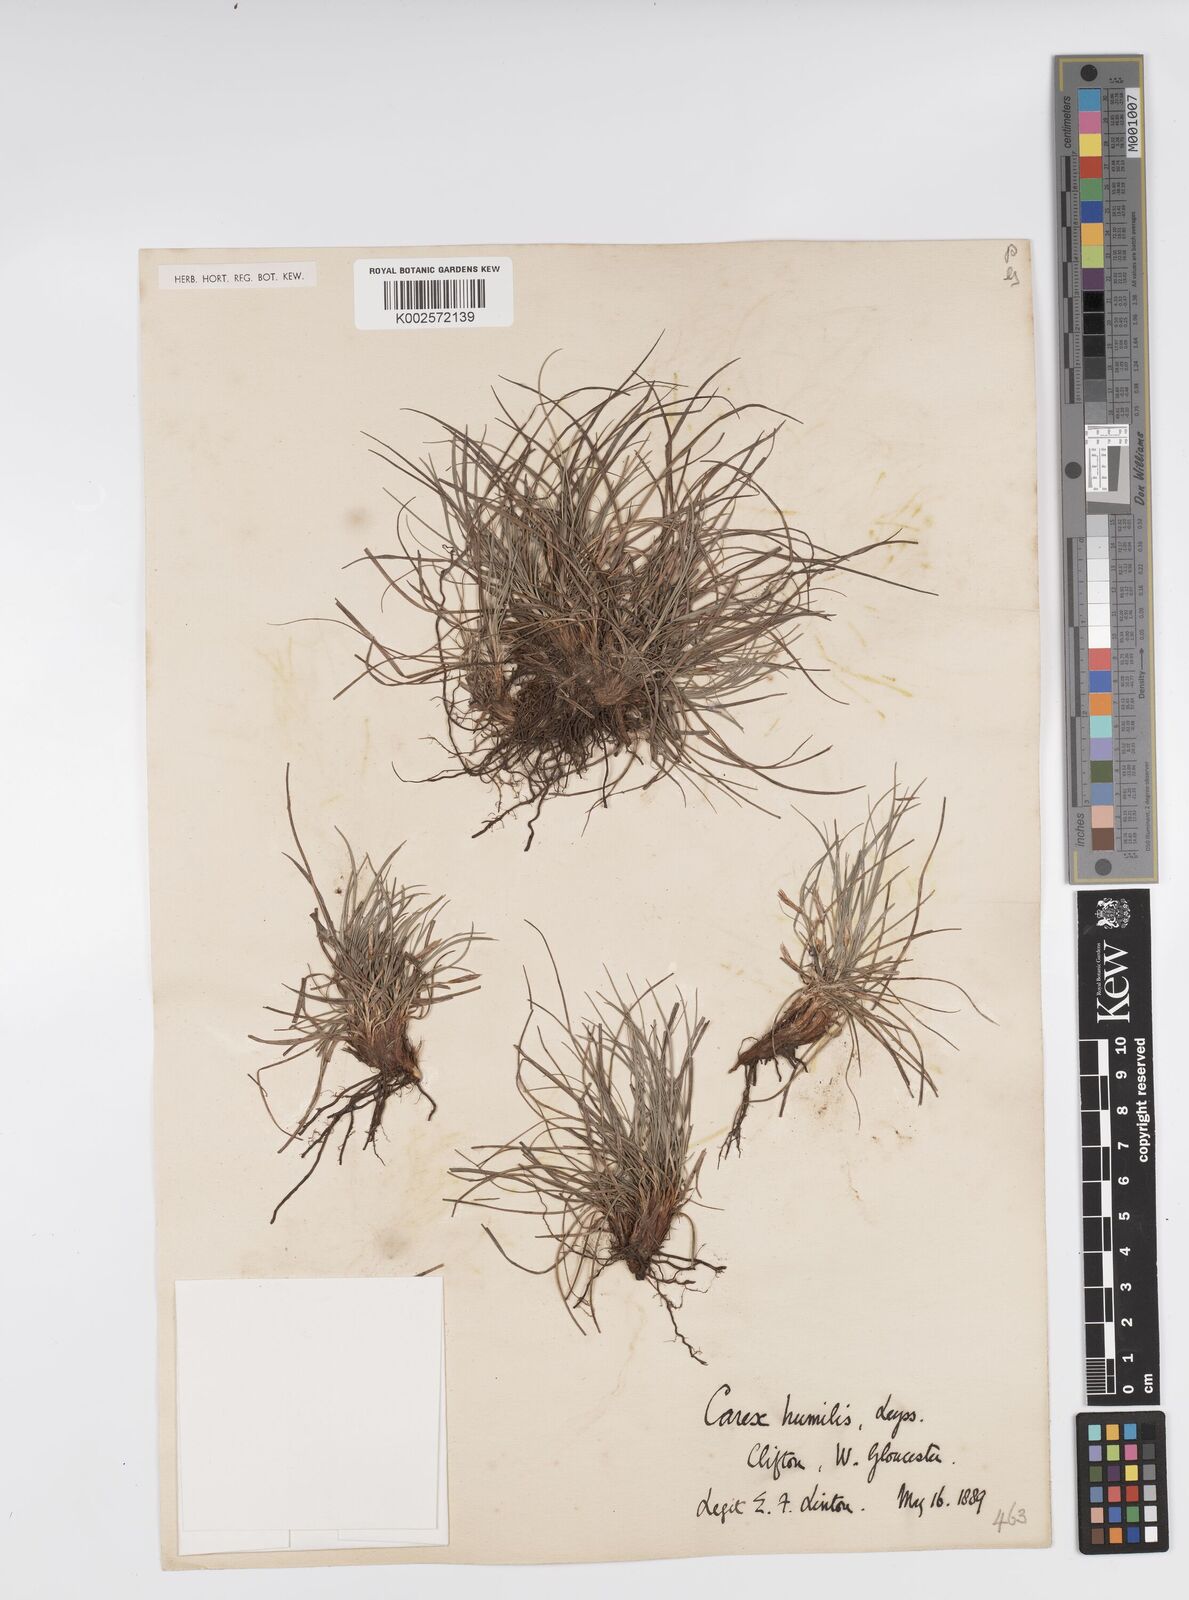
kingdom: Plantae
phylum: Tracheophyta
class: Liliopsida
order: Poales
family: Cyperaceae
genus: Carex
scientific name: Carex humilis
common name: Dwarf sedge
